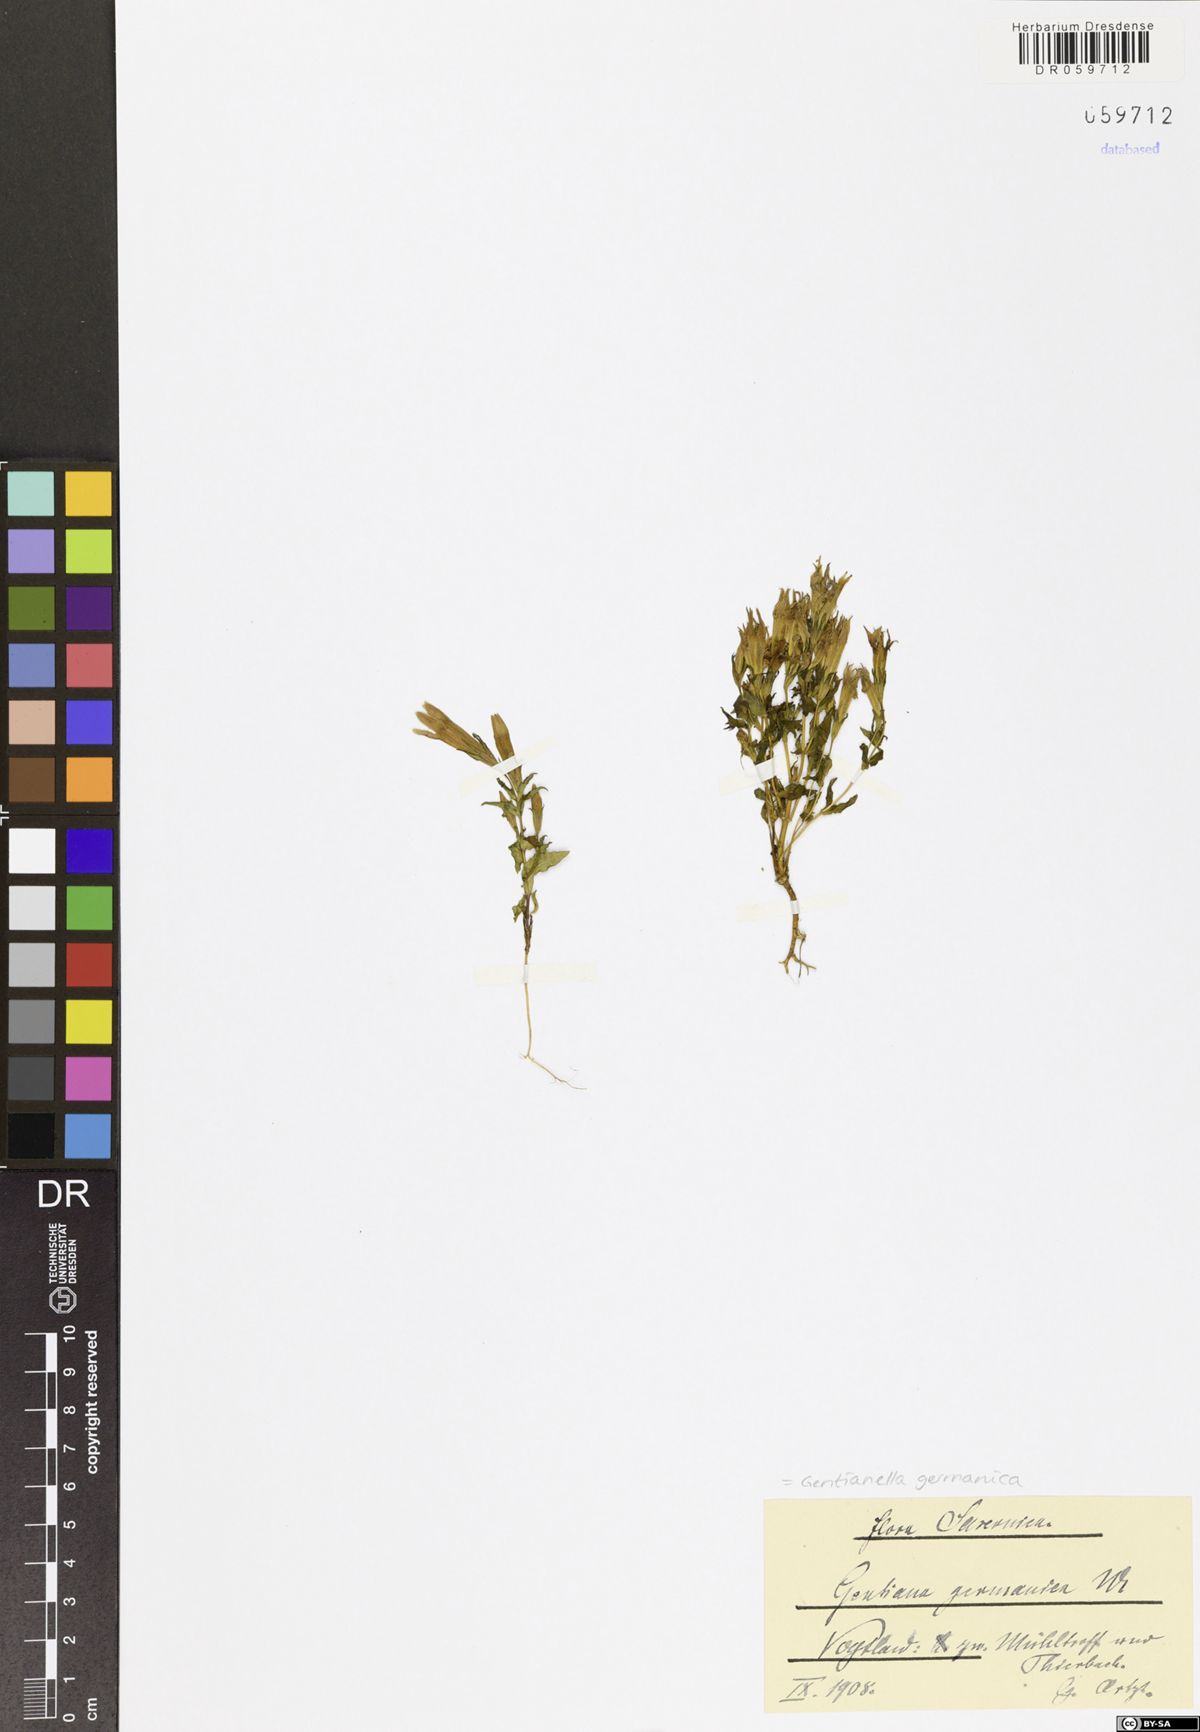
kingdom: Plantae
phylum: Tracheophyta
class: Magnoliopsida
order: Gentianales
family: Gentianaceae
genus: Gentianella
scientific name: Gentianella germanica
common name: Chiltern-gentian
